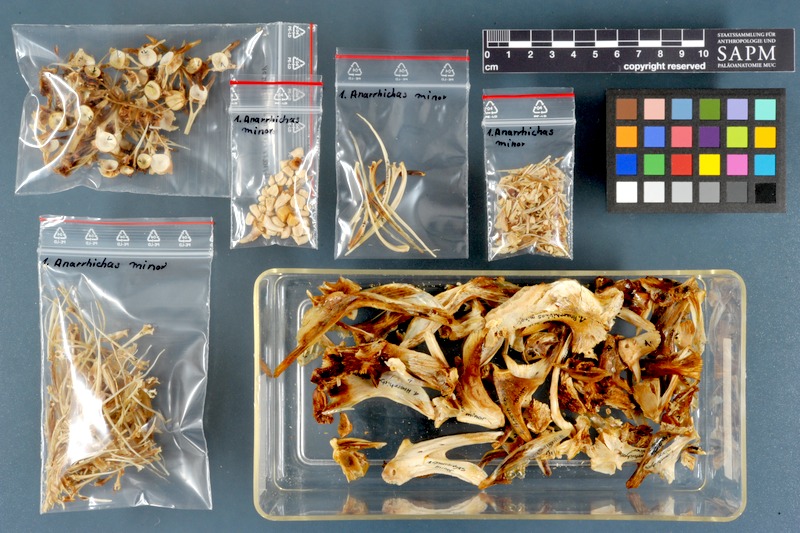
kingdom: Animalia
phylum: Chordata
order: Perciformes
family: Anarhichadidae
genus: Anarhichas
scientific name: Anarhichas minor
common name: Spotted catfish
